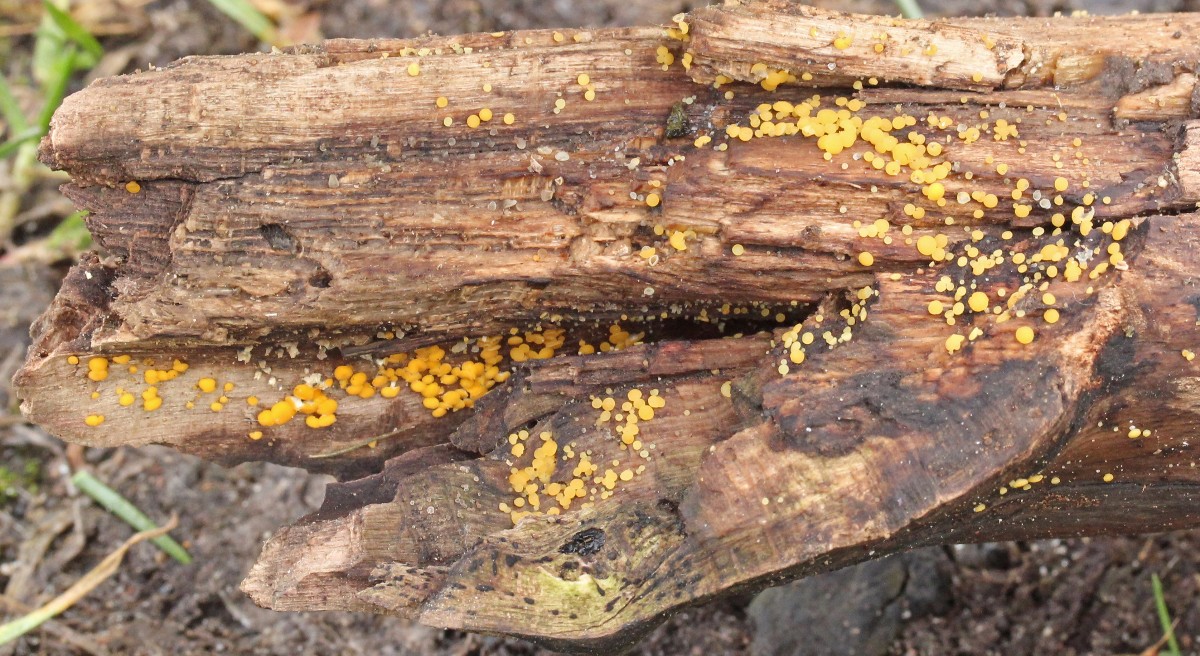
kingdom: Fungi
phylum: Ascomycota
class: Leotiomycetes
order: Helotiales
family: Pezizellaceae
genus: Calycina
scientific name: Calycina citrina
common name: almindelig gulskive
